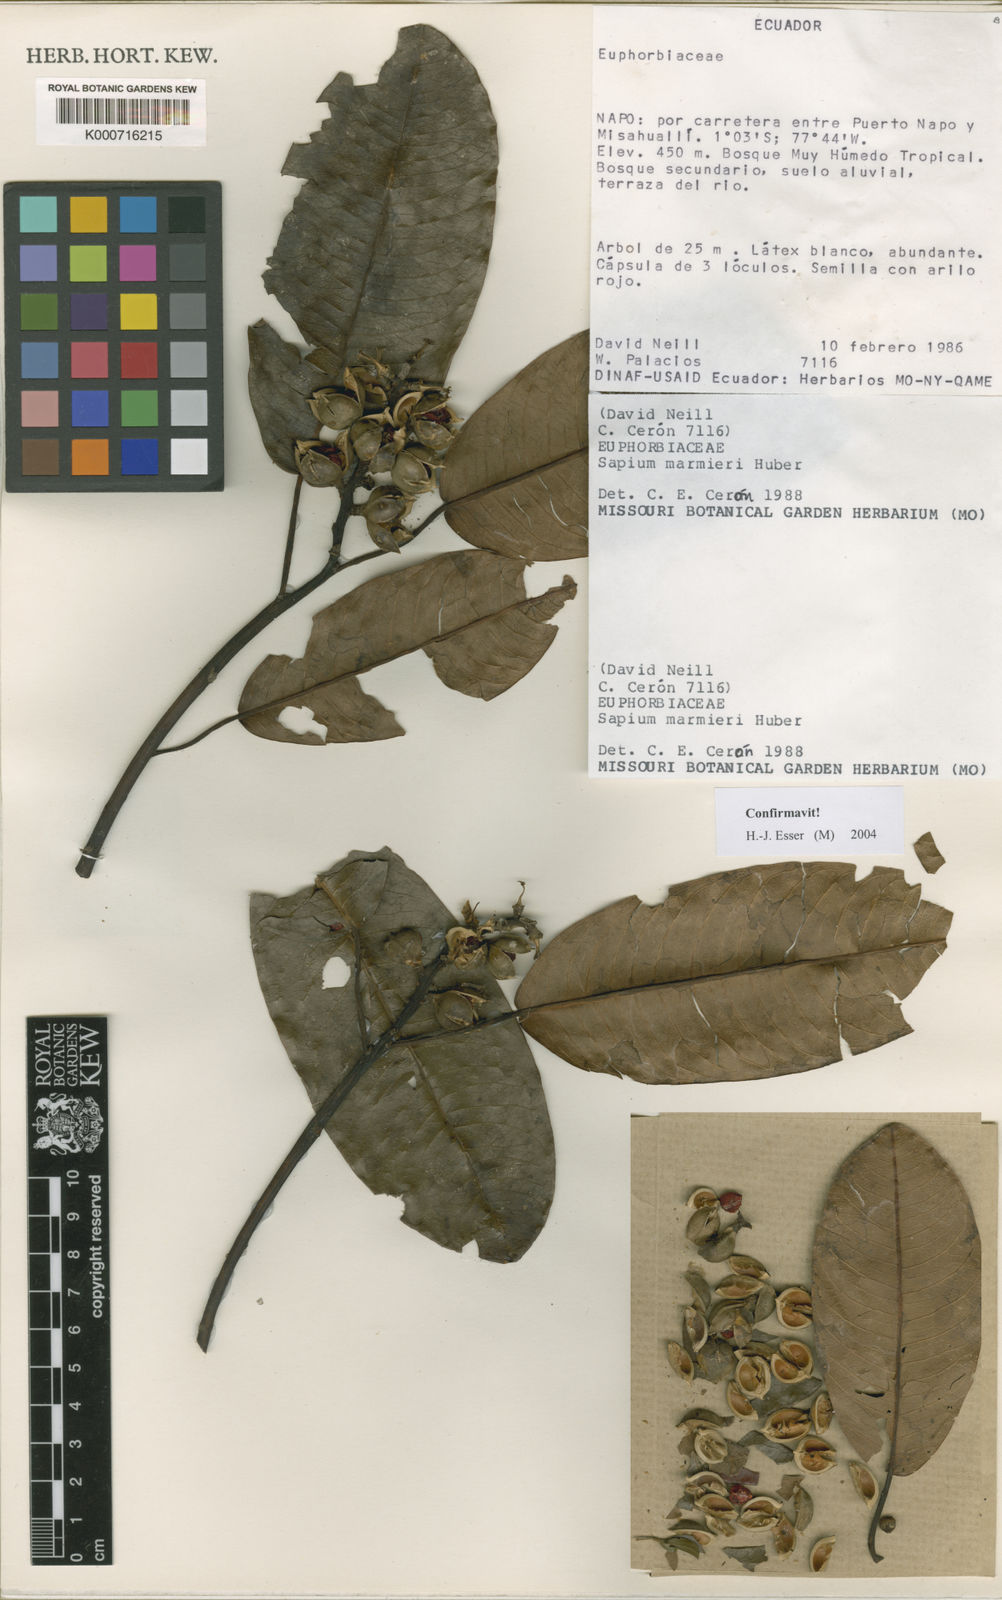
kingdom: Plantae
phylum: Tracheophyta
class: Magnoliopsida
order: Malpighiales
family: Euphorbiaceae
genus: Sapium
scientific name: Sapium marmieri
